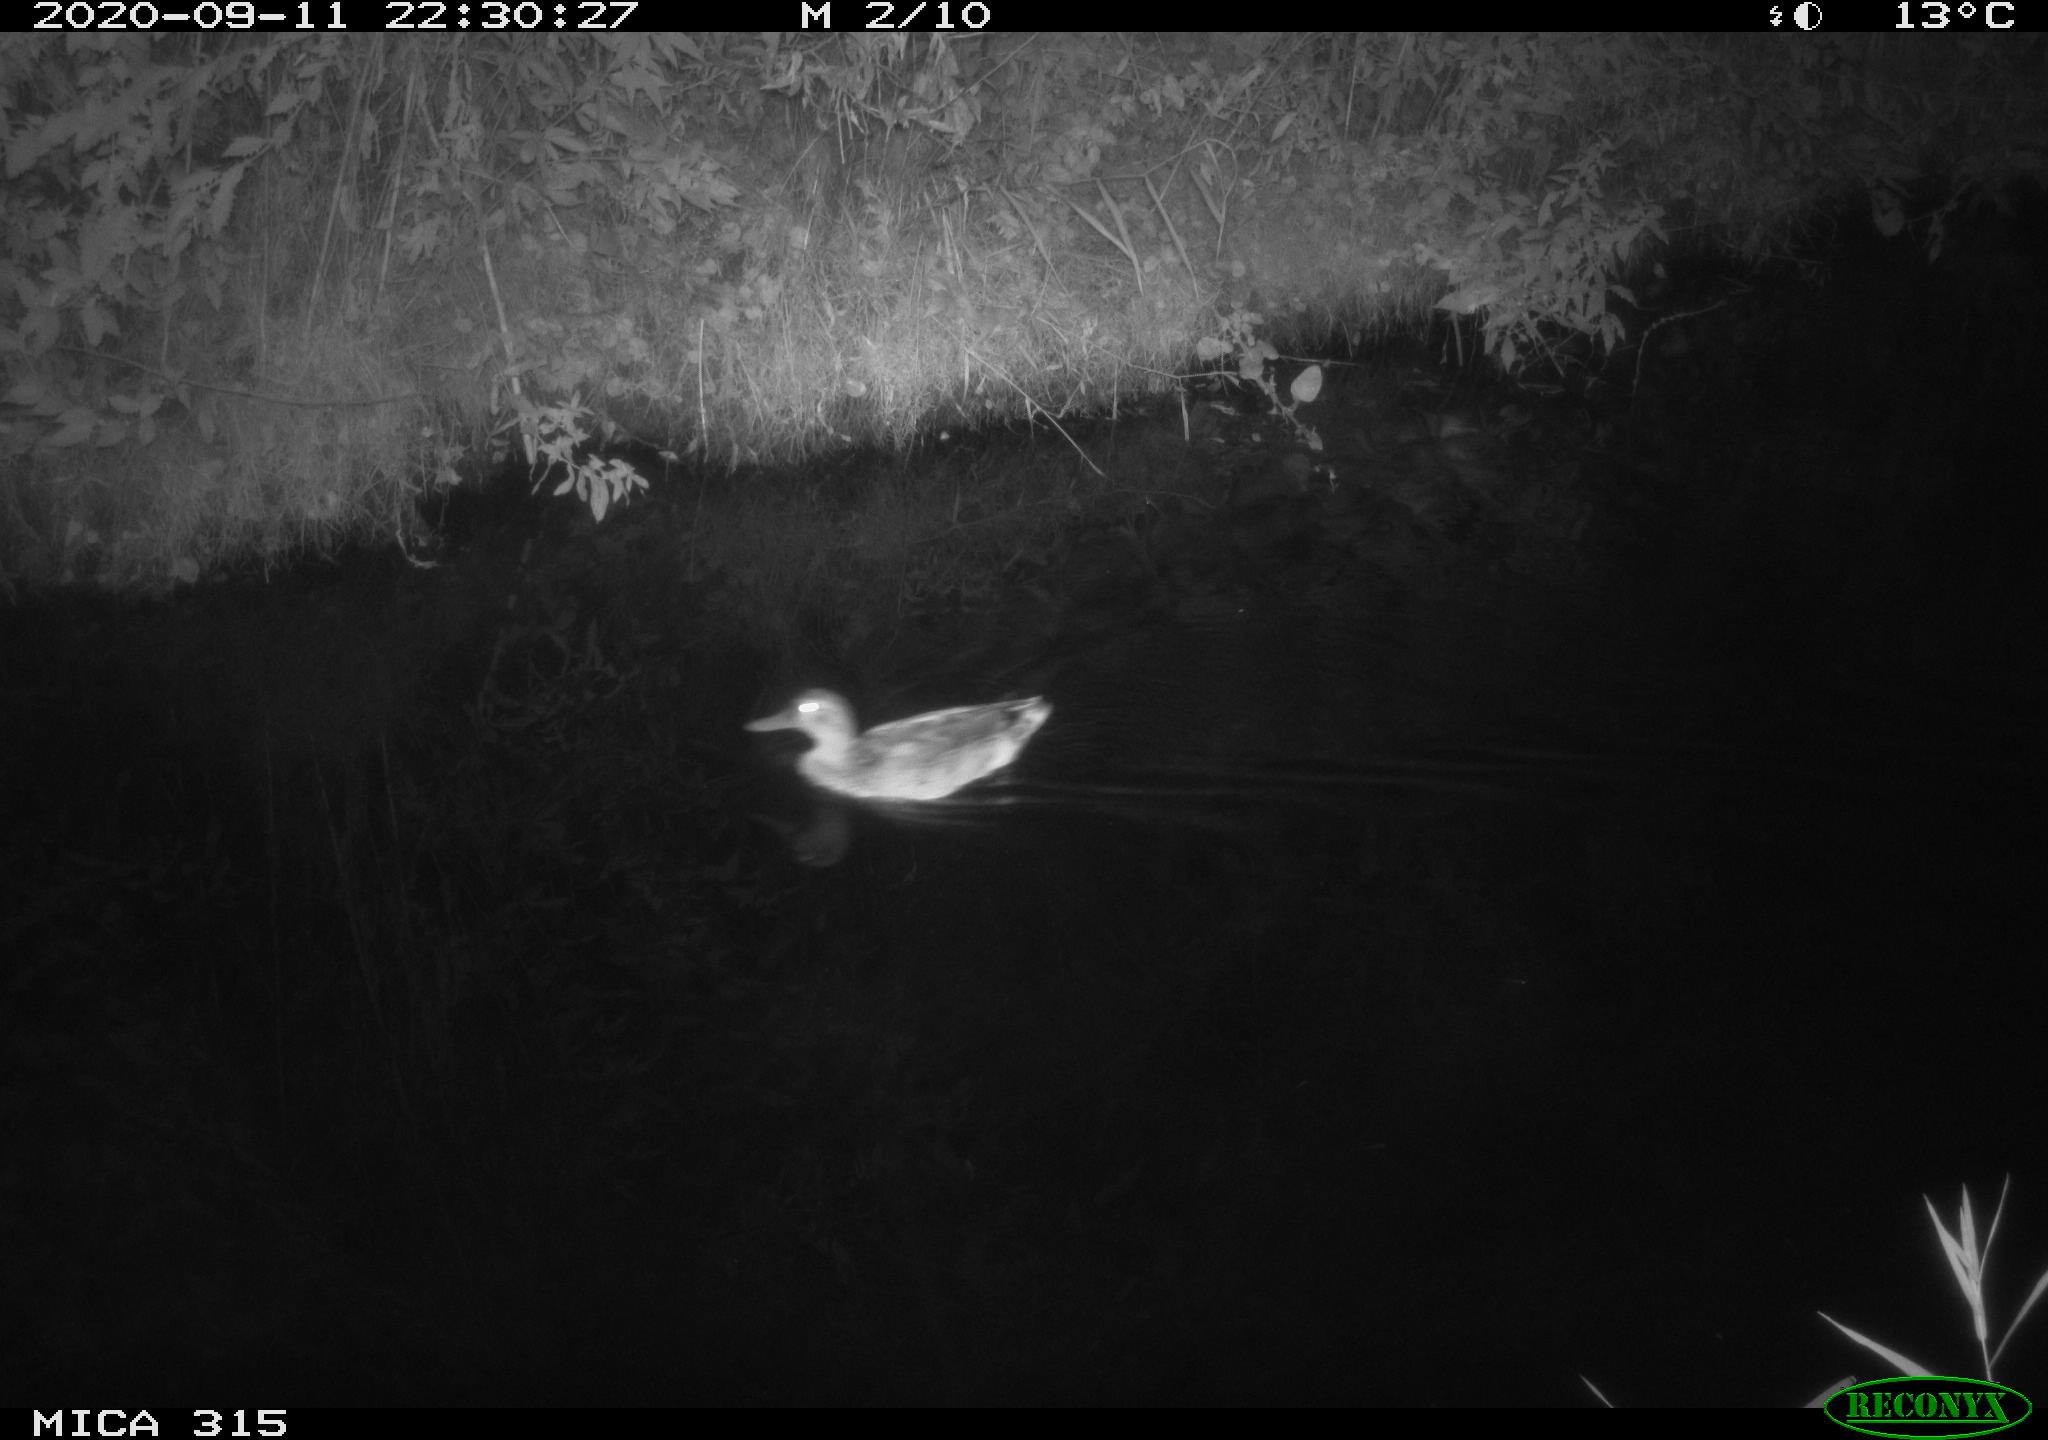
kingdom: Animalia
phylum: Chordata
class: Aves
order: Anseriformes
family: Anatidae
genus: Anas
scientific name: Anas platyrhynchos
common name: Mallard
